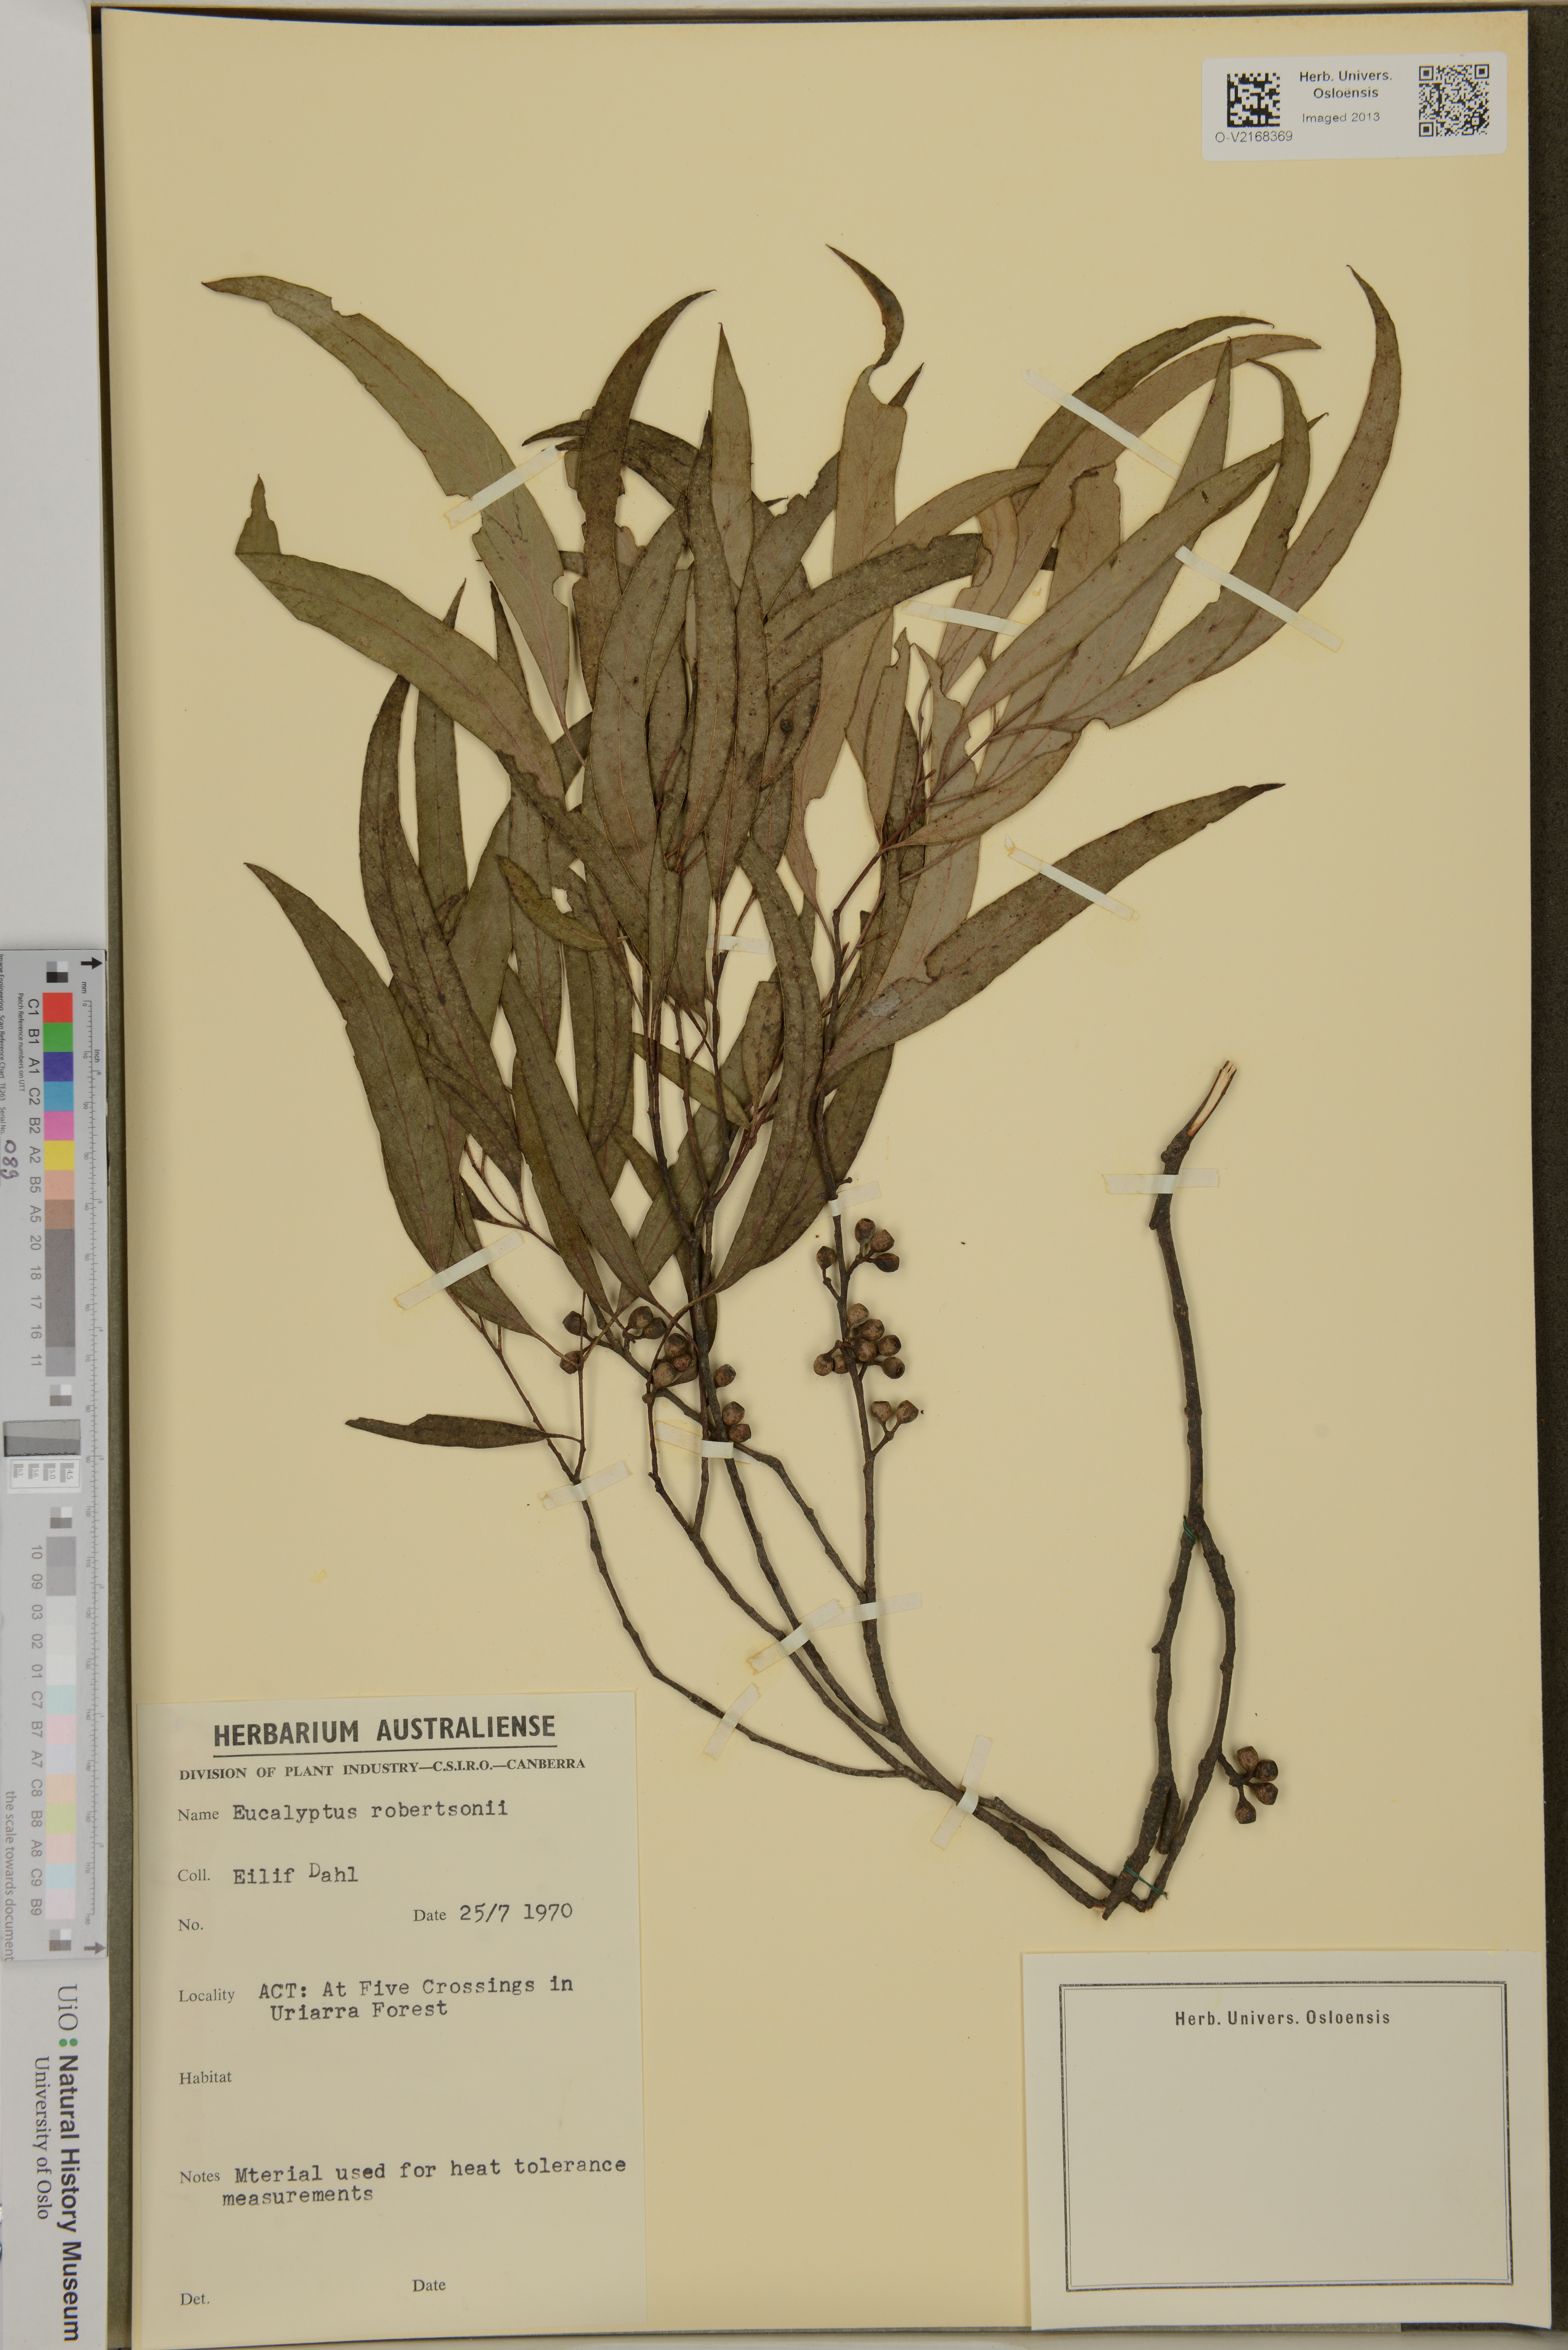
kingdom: Plantae
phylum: Tracheophyta
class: Magnoliopsida
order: Myrtales
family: Myrtaceae
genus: Eucalyptus
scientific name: Eucalyptus robertsonii
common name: Narrow-leaved-peppermint
